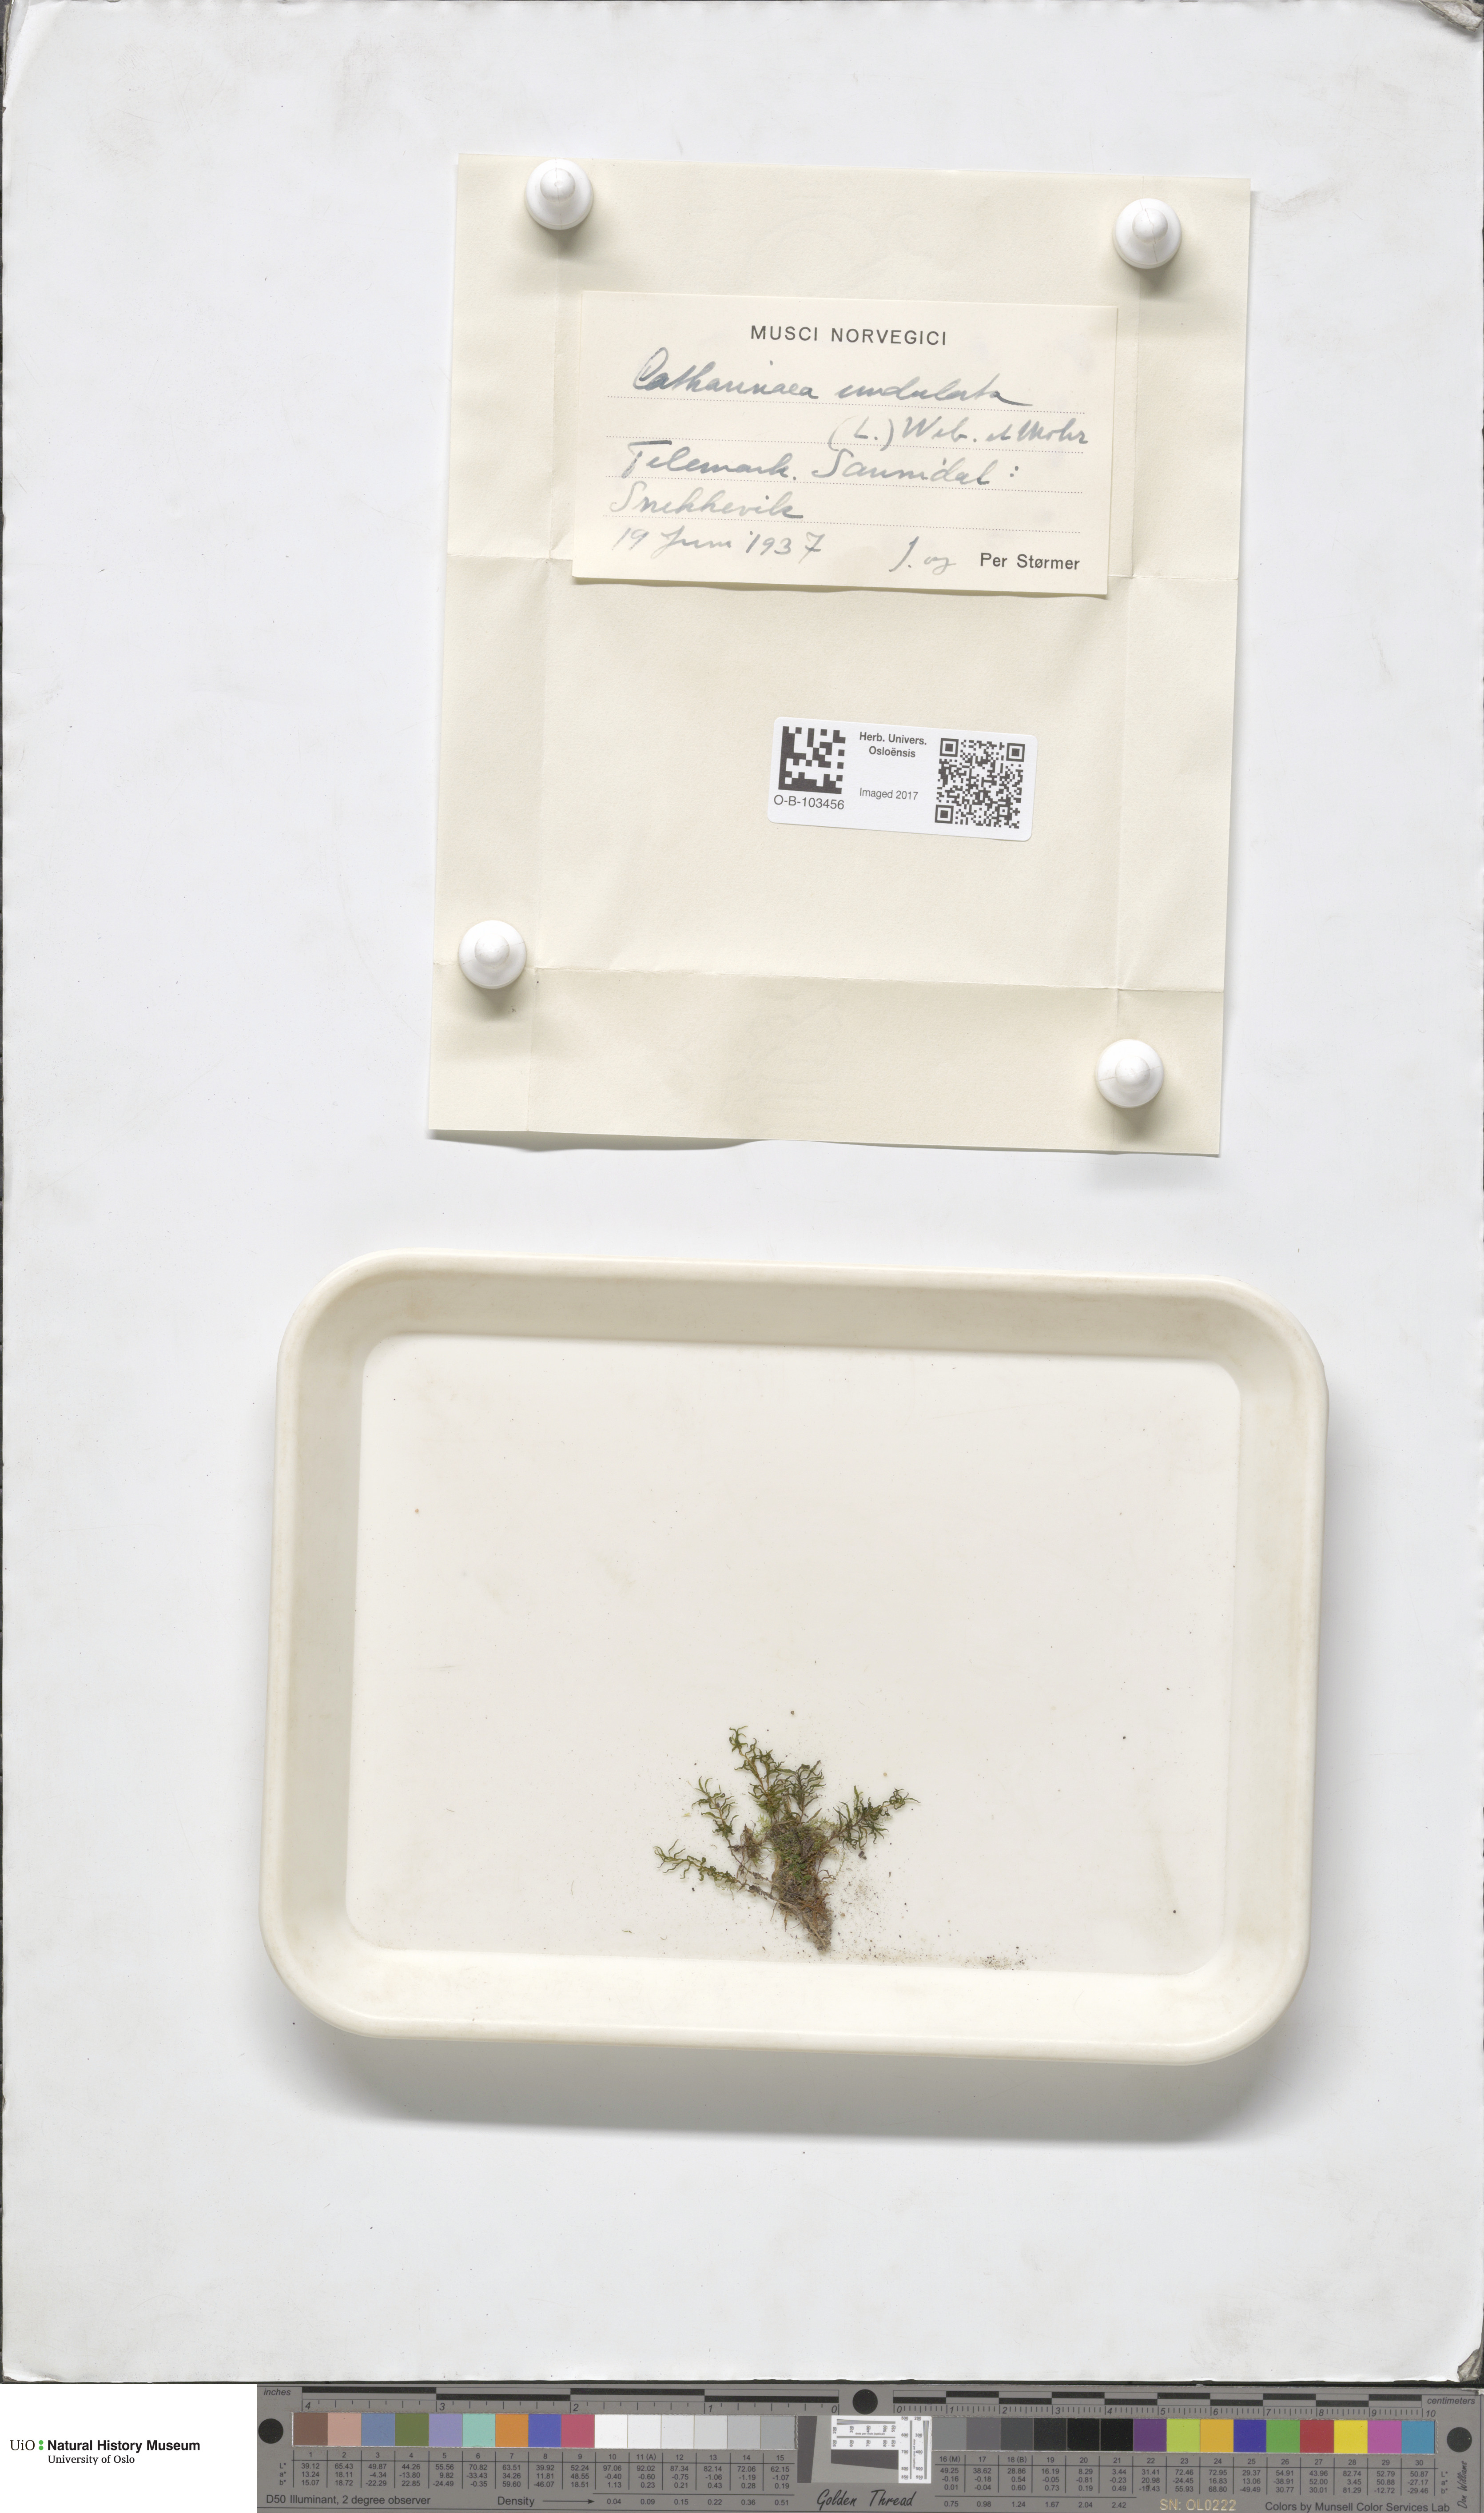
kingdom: Plantae
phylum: Bryophyta
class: Polytrichopsida
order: Polytrichales
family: Polytrichaceae
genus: Atrichum
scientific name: Atrichum undulatum
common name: Common smoothcap
